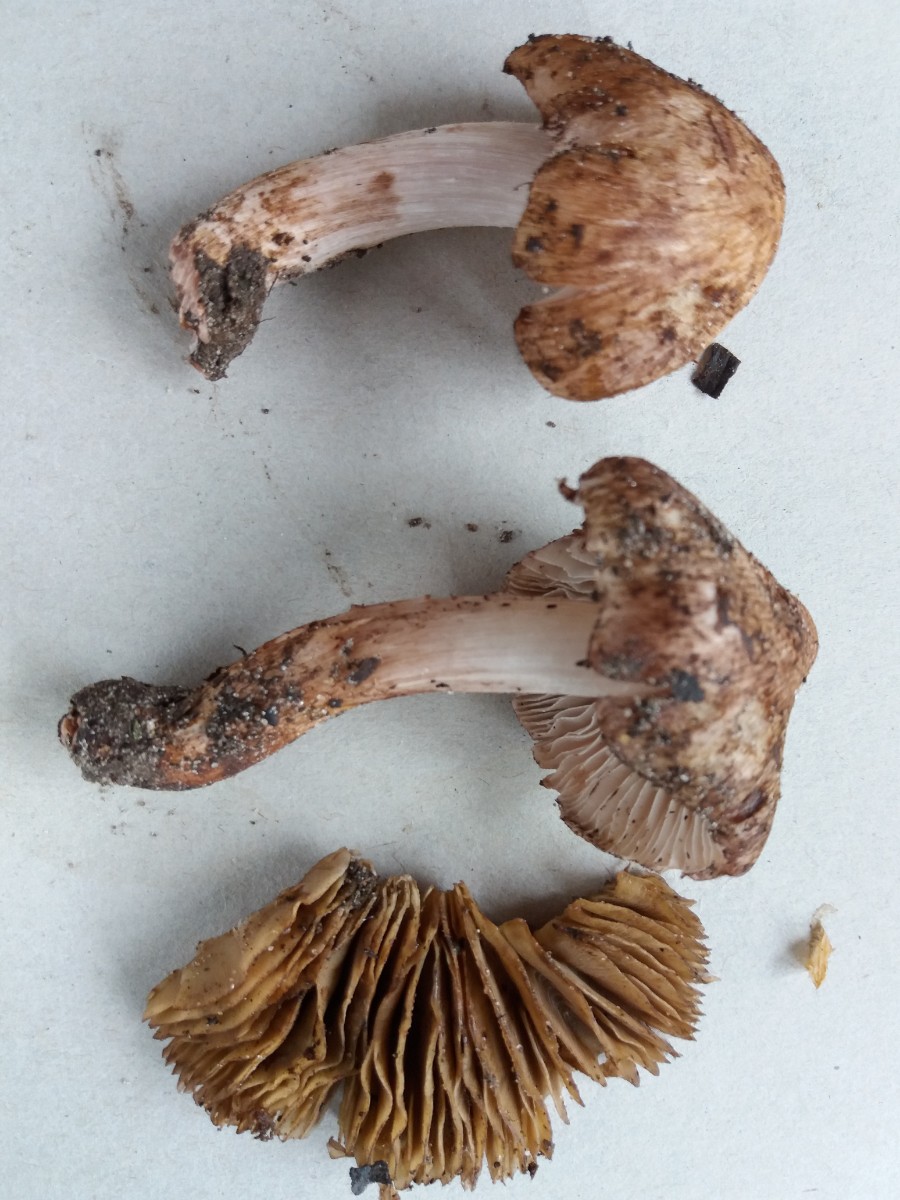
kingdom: Fungi
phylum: Basidiomycota
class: Agaricomycetes
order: Agaricales
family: Inocybaceae
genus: Inosperma
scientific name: Inosperma adaequatum
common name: vinrød trævlhat
